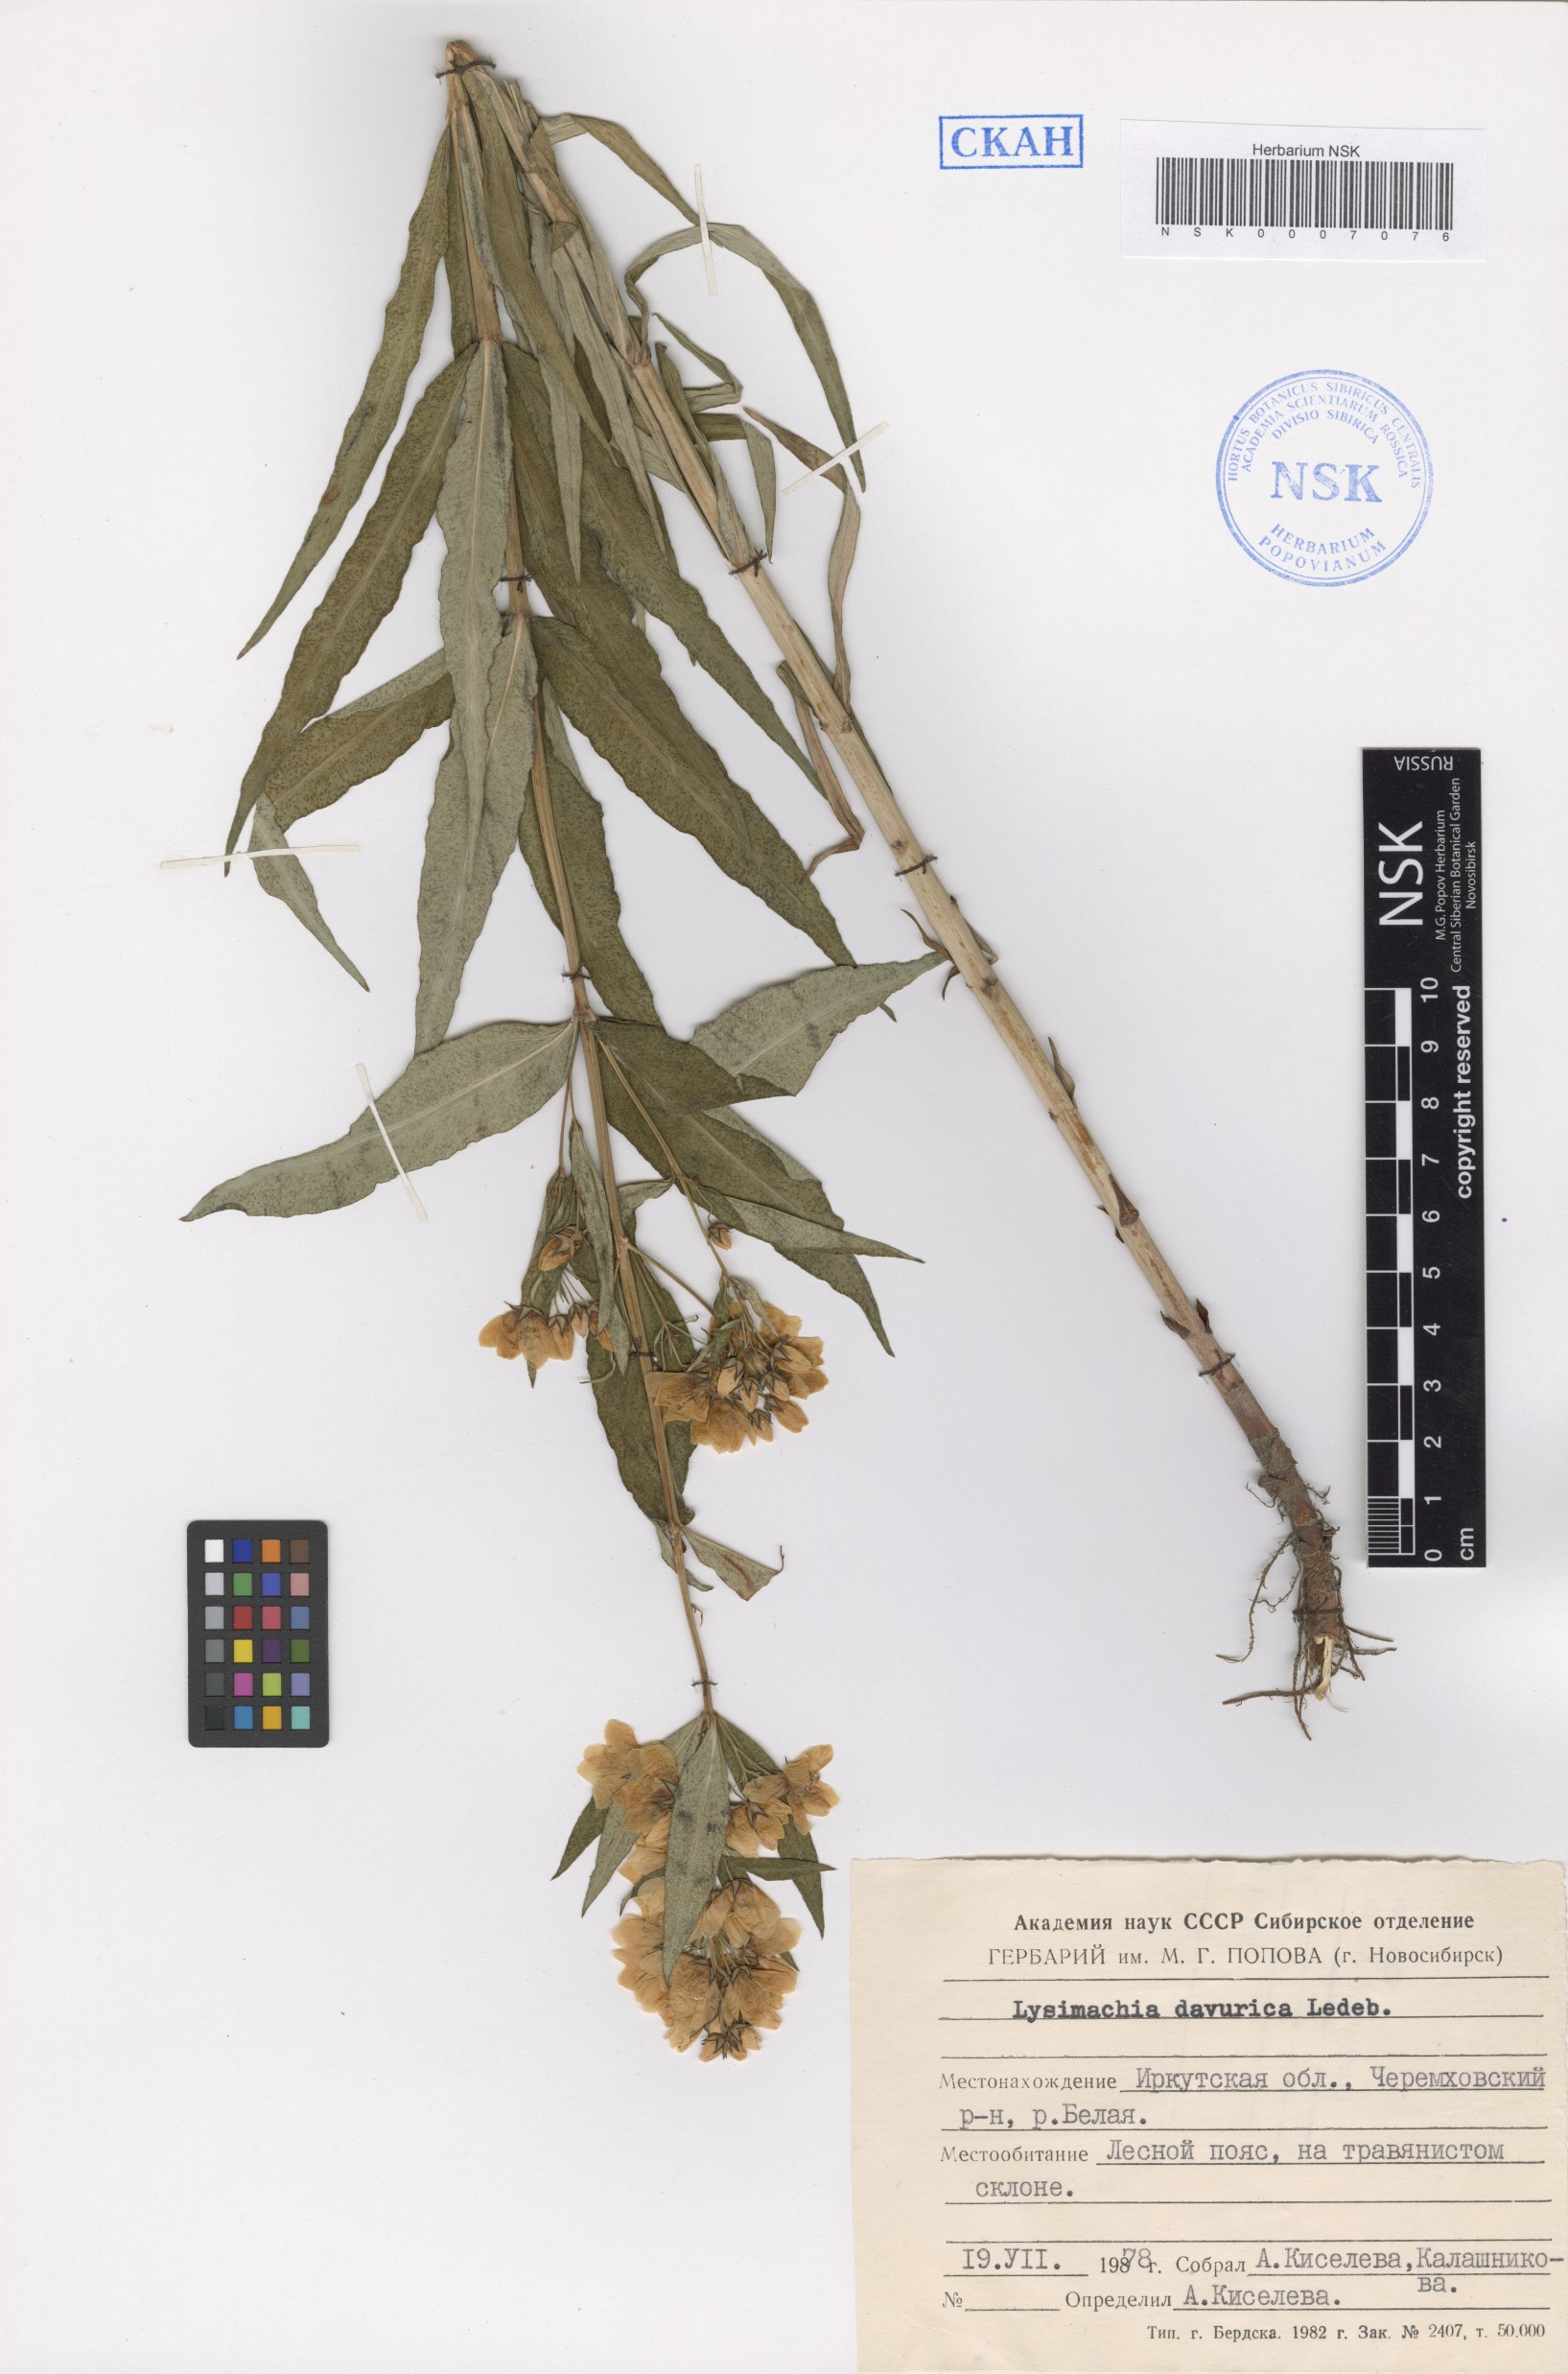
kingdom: Plantae
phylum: Tracheophyta
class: Magnoliopsida
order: Ericales
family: Primulaceae
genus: Lysimachia
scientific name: Lysimachia davurica
